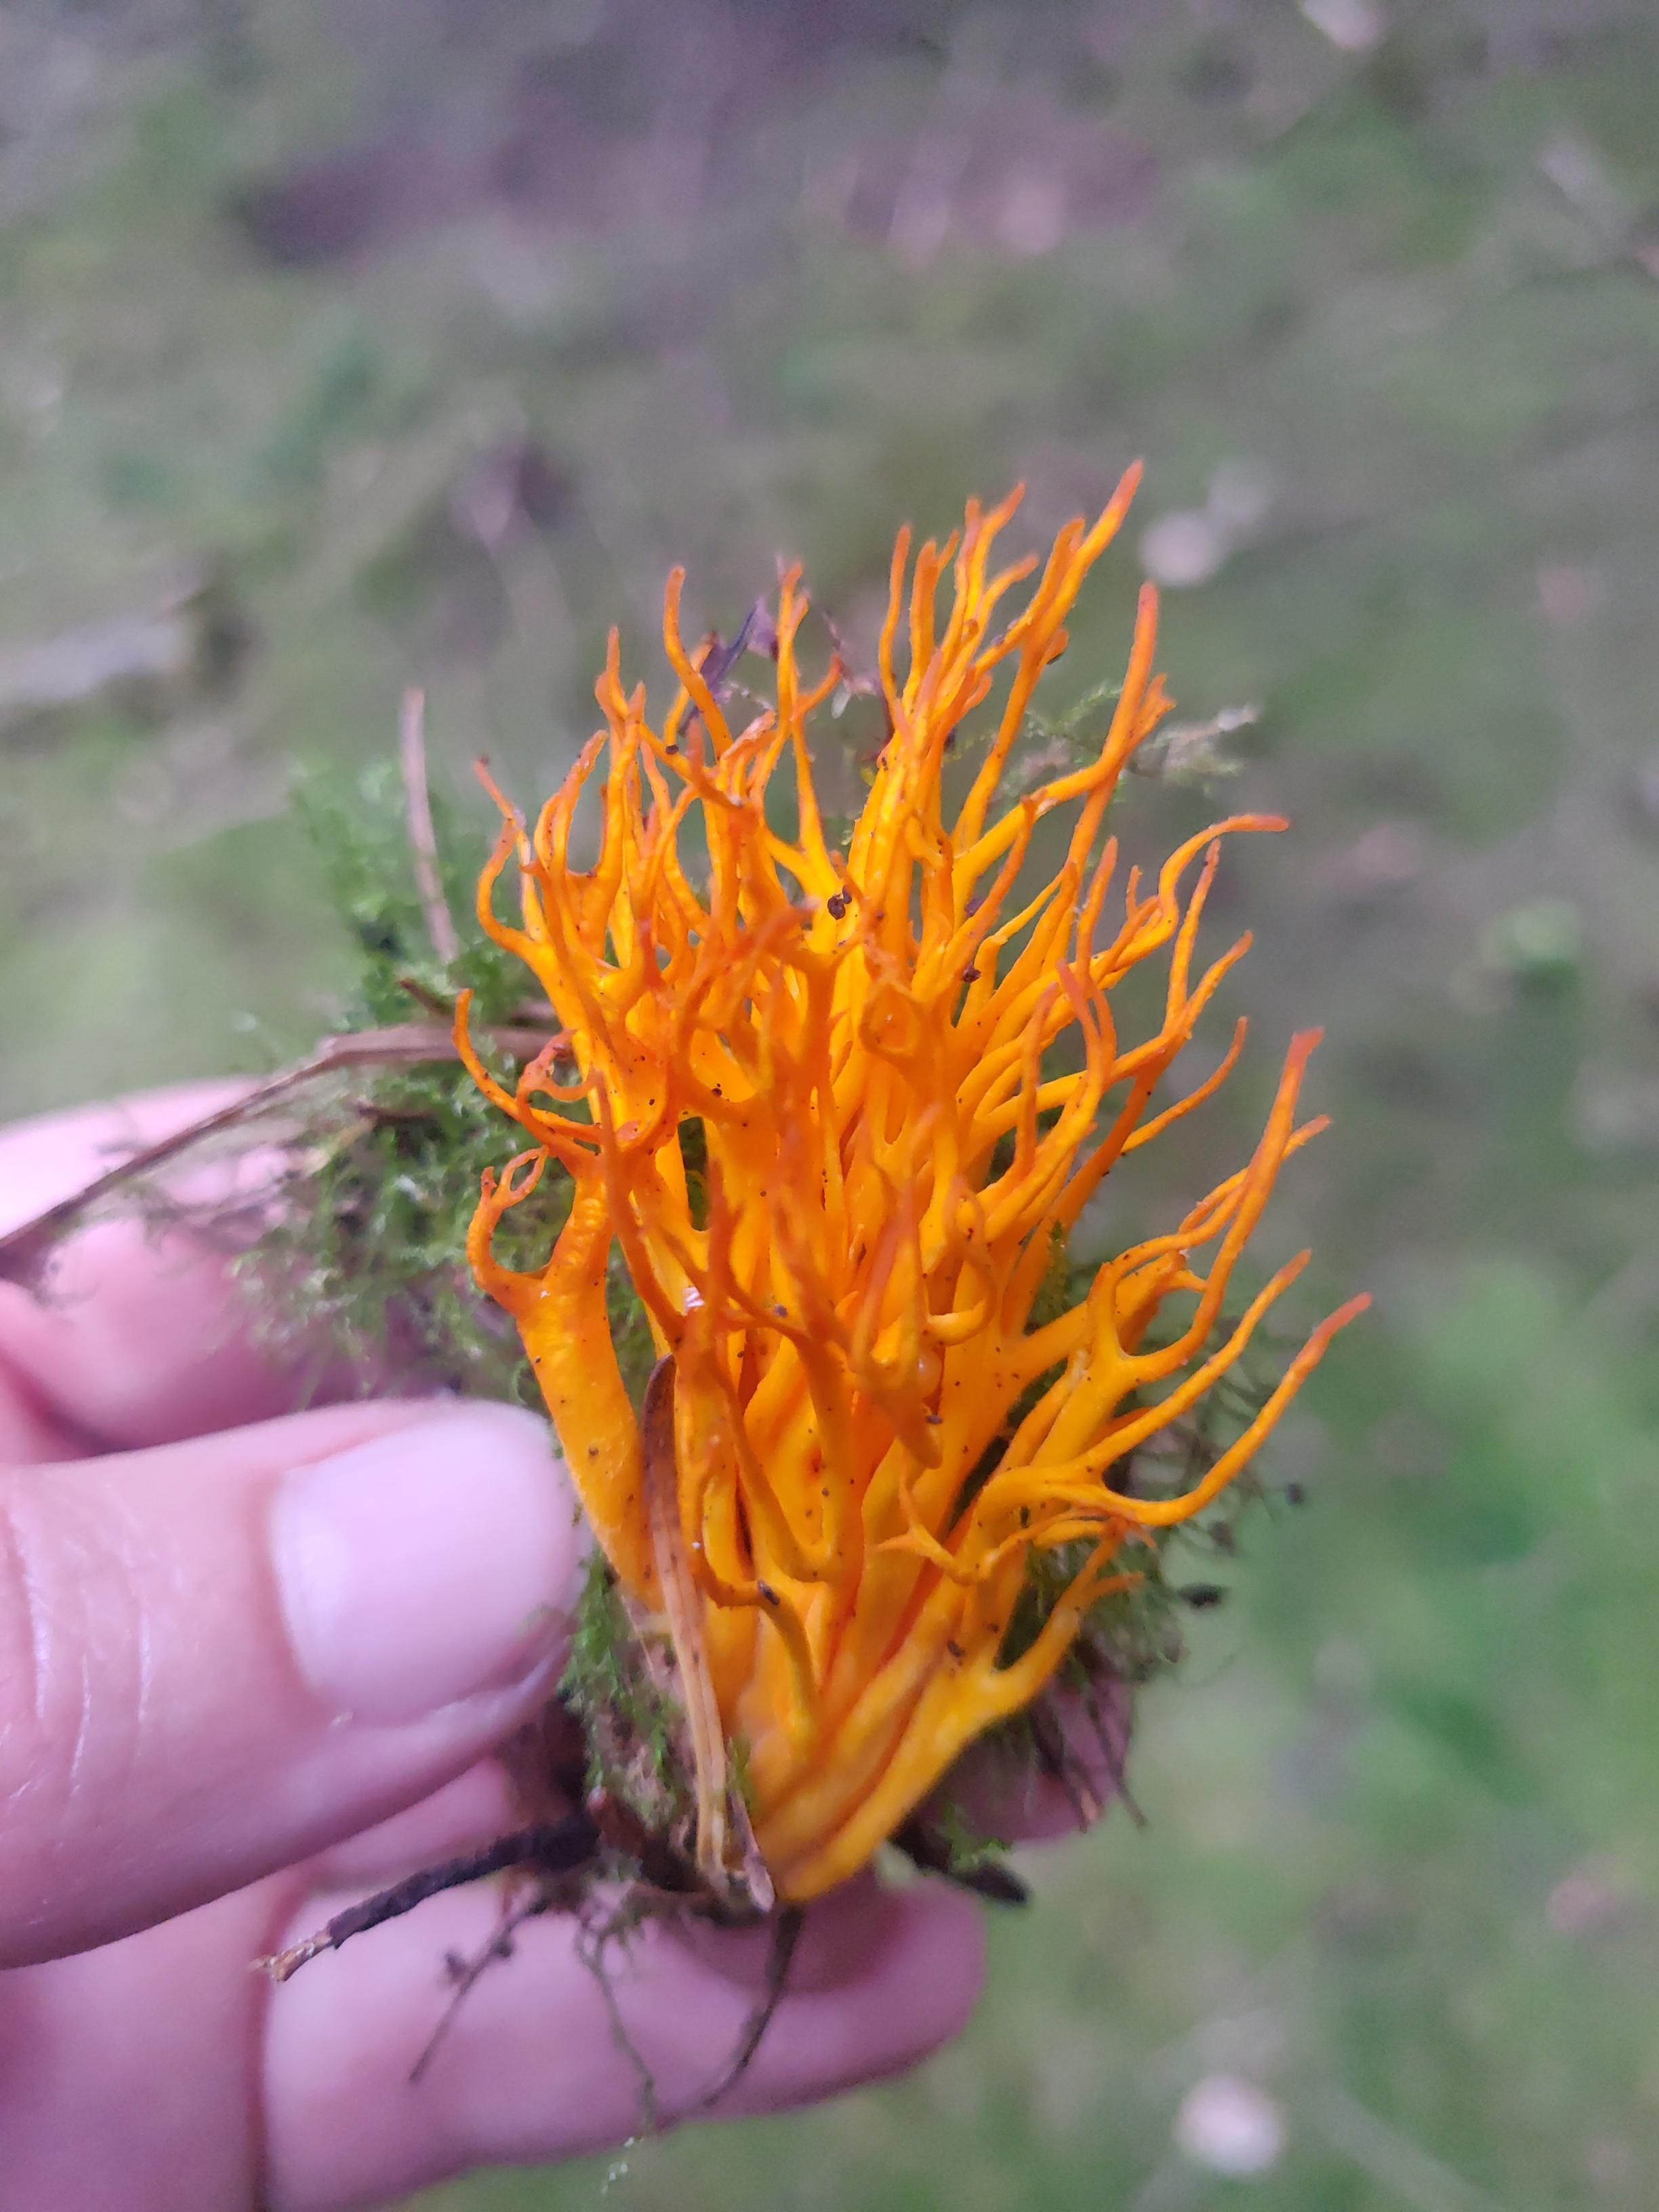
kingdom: Fungi
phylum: Basidiomycota
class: Dacrymycetes
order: Dacrymycetales
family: Dacrymycetaceae
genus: Calocera
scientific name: Calocera viscosa
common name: almindelig guldgaffel
